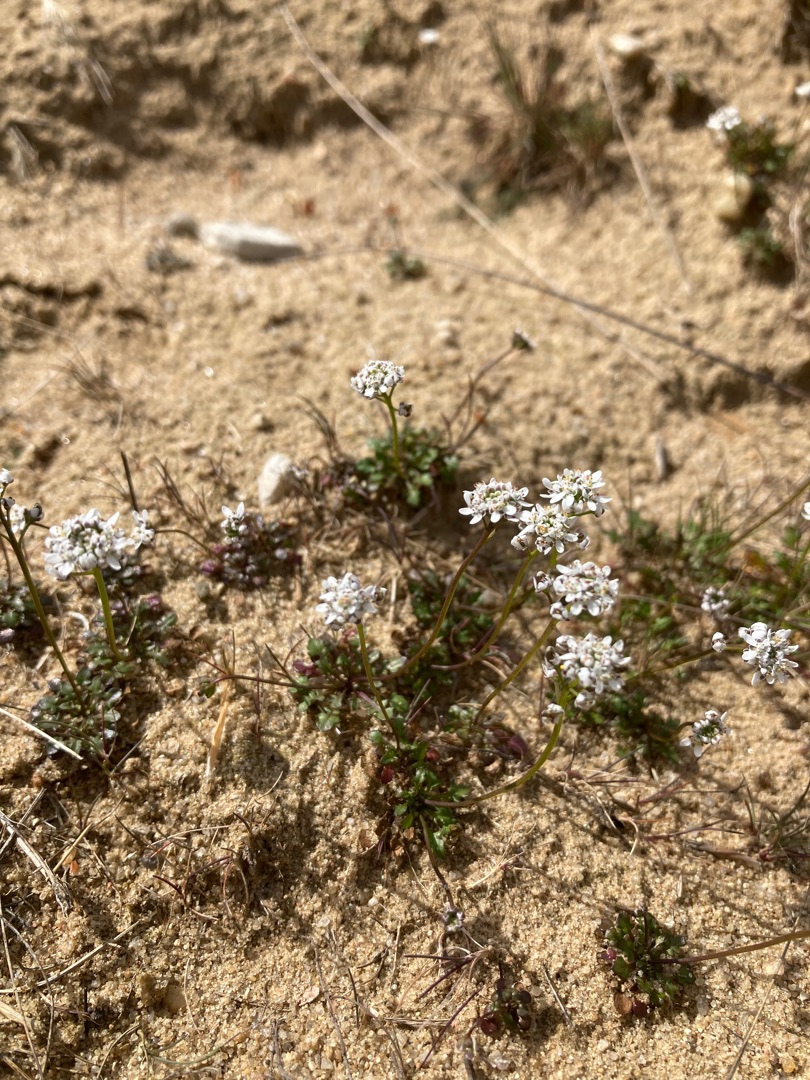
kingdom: Plantae
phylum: Tracheophyta
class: Magnoliopsida
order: Brassicales
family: Brassicaceae
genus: Teesdalia
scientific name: Teesdalia nudicaulis
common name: Flipkrave
